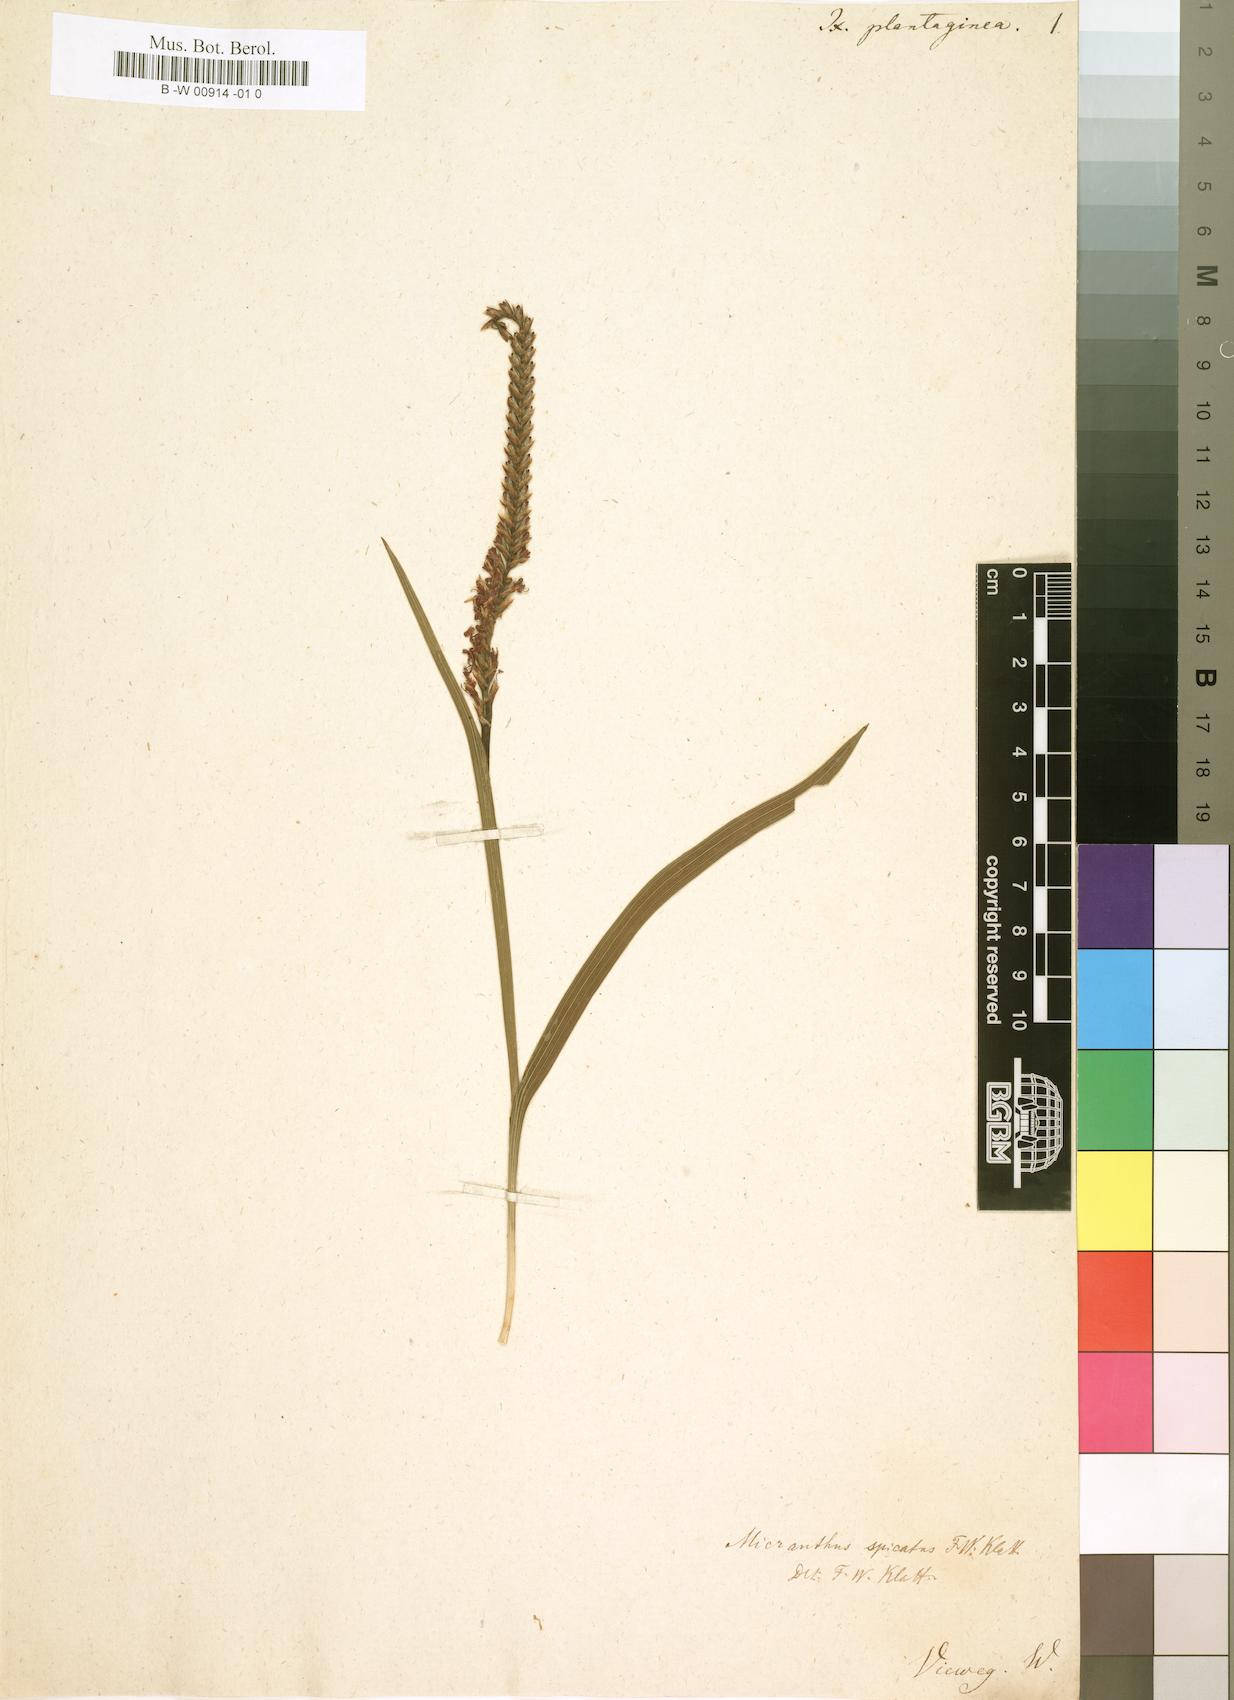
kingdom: Plantae
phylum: Tracheophyta
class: Liliopsida
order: Asparagales
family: Iridaceae
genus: Micranthus
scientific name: Micranthus alopecuroides
